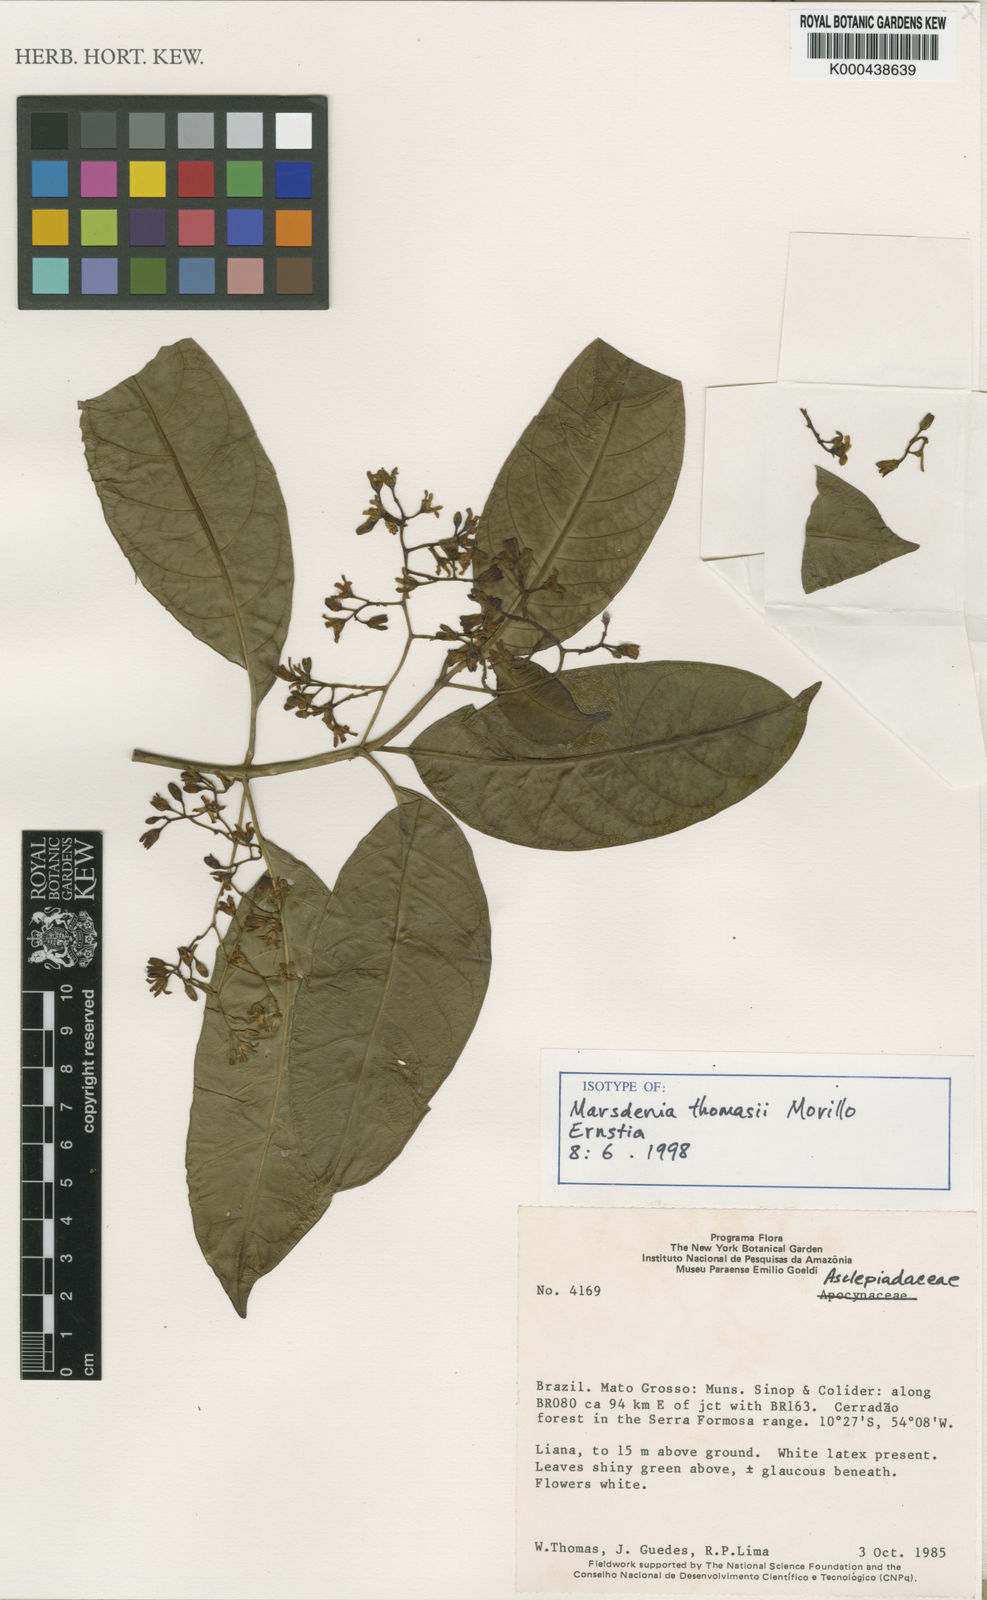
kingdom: Plantae
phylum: Tracheophyta
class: Magnoliopsida
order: Gentianales
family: Apocynaceae
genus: Ruehssia
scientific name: Ruehssia thomasii
